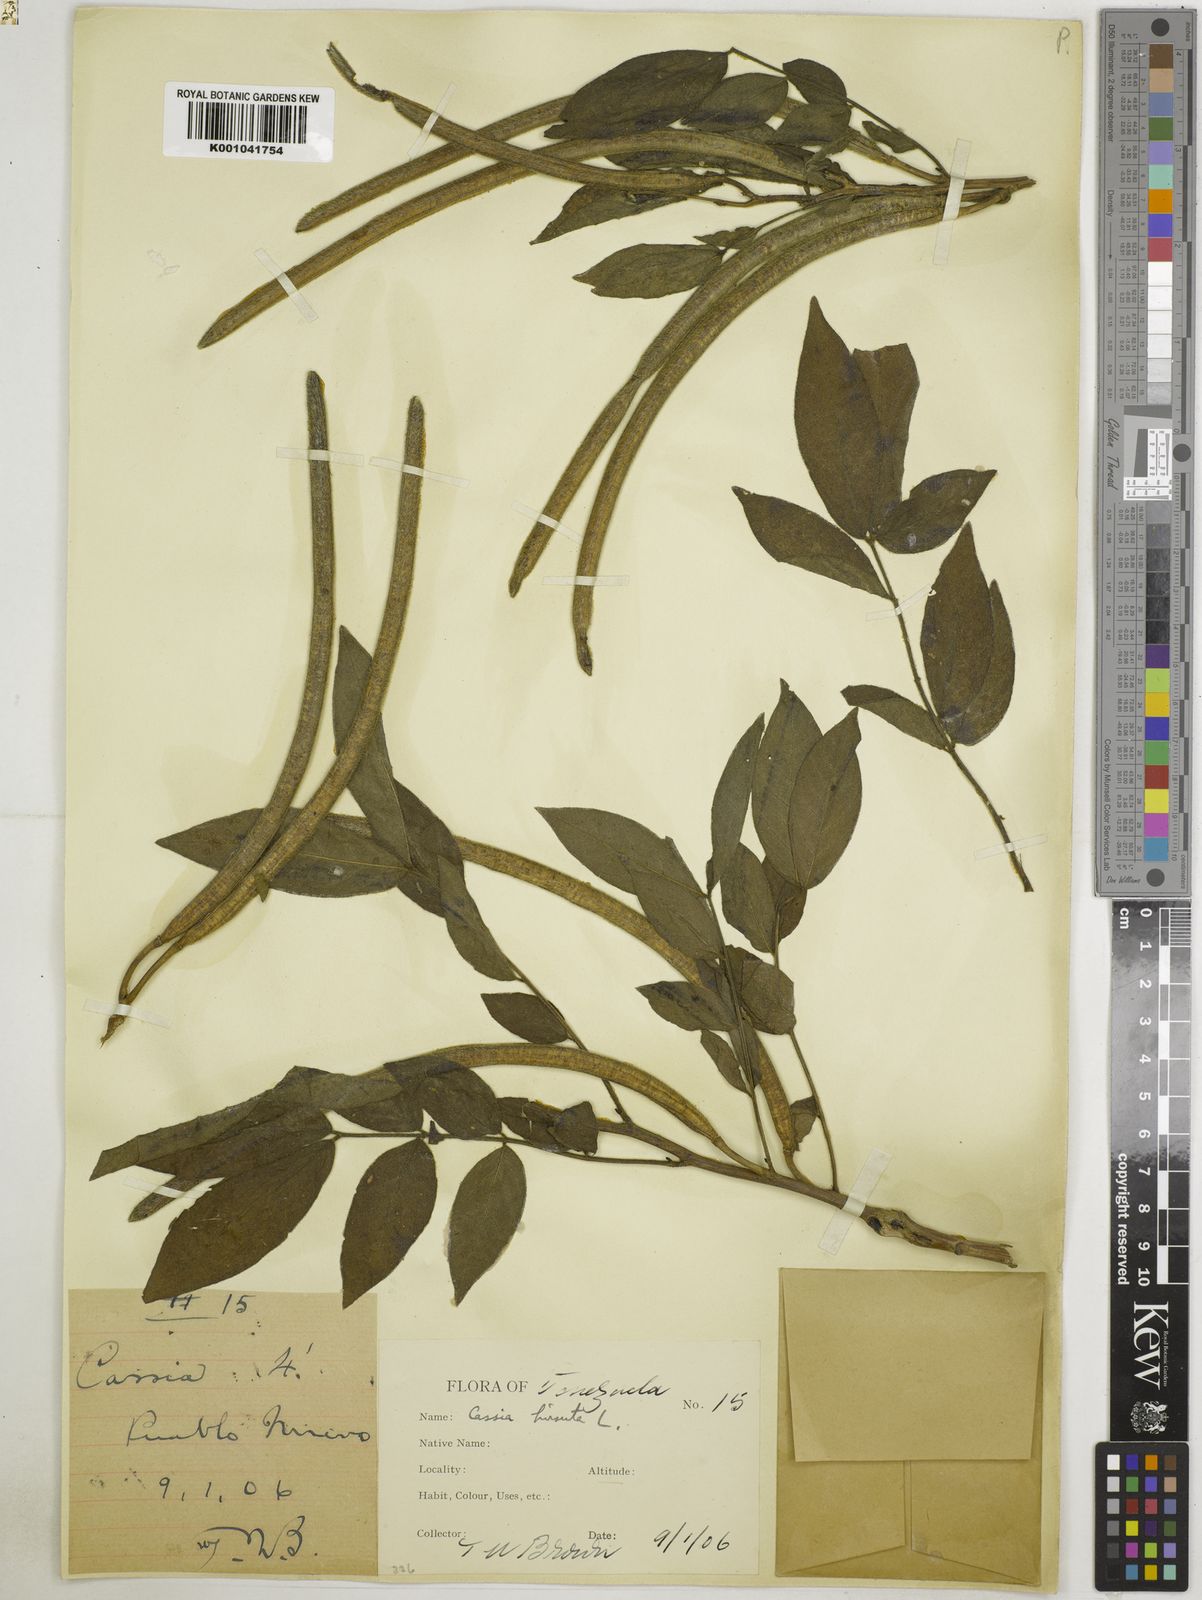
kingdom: Plantae
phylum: Tracheophyta
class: Magnoliopsida
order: Fabales
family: Fabaceae
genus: Senna
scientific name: Senna hirsuta
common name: Woolly senna
